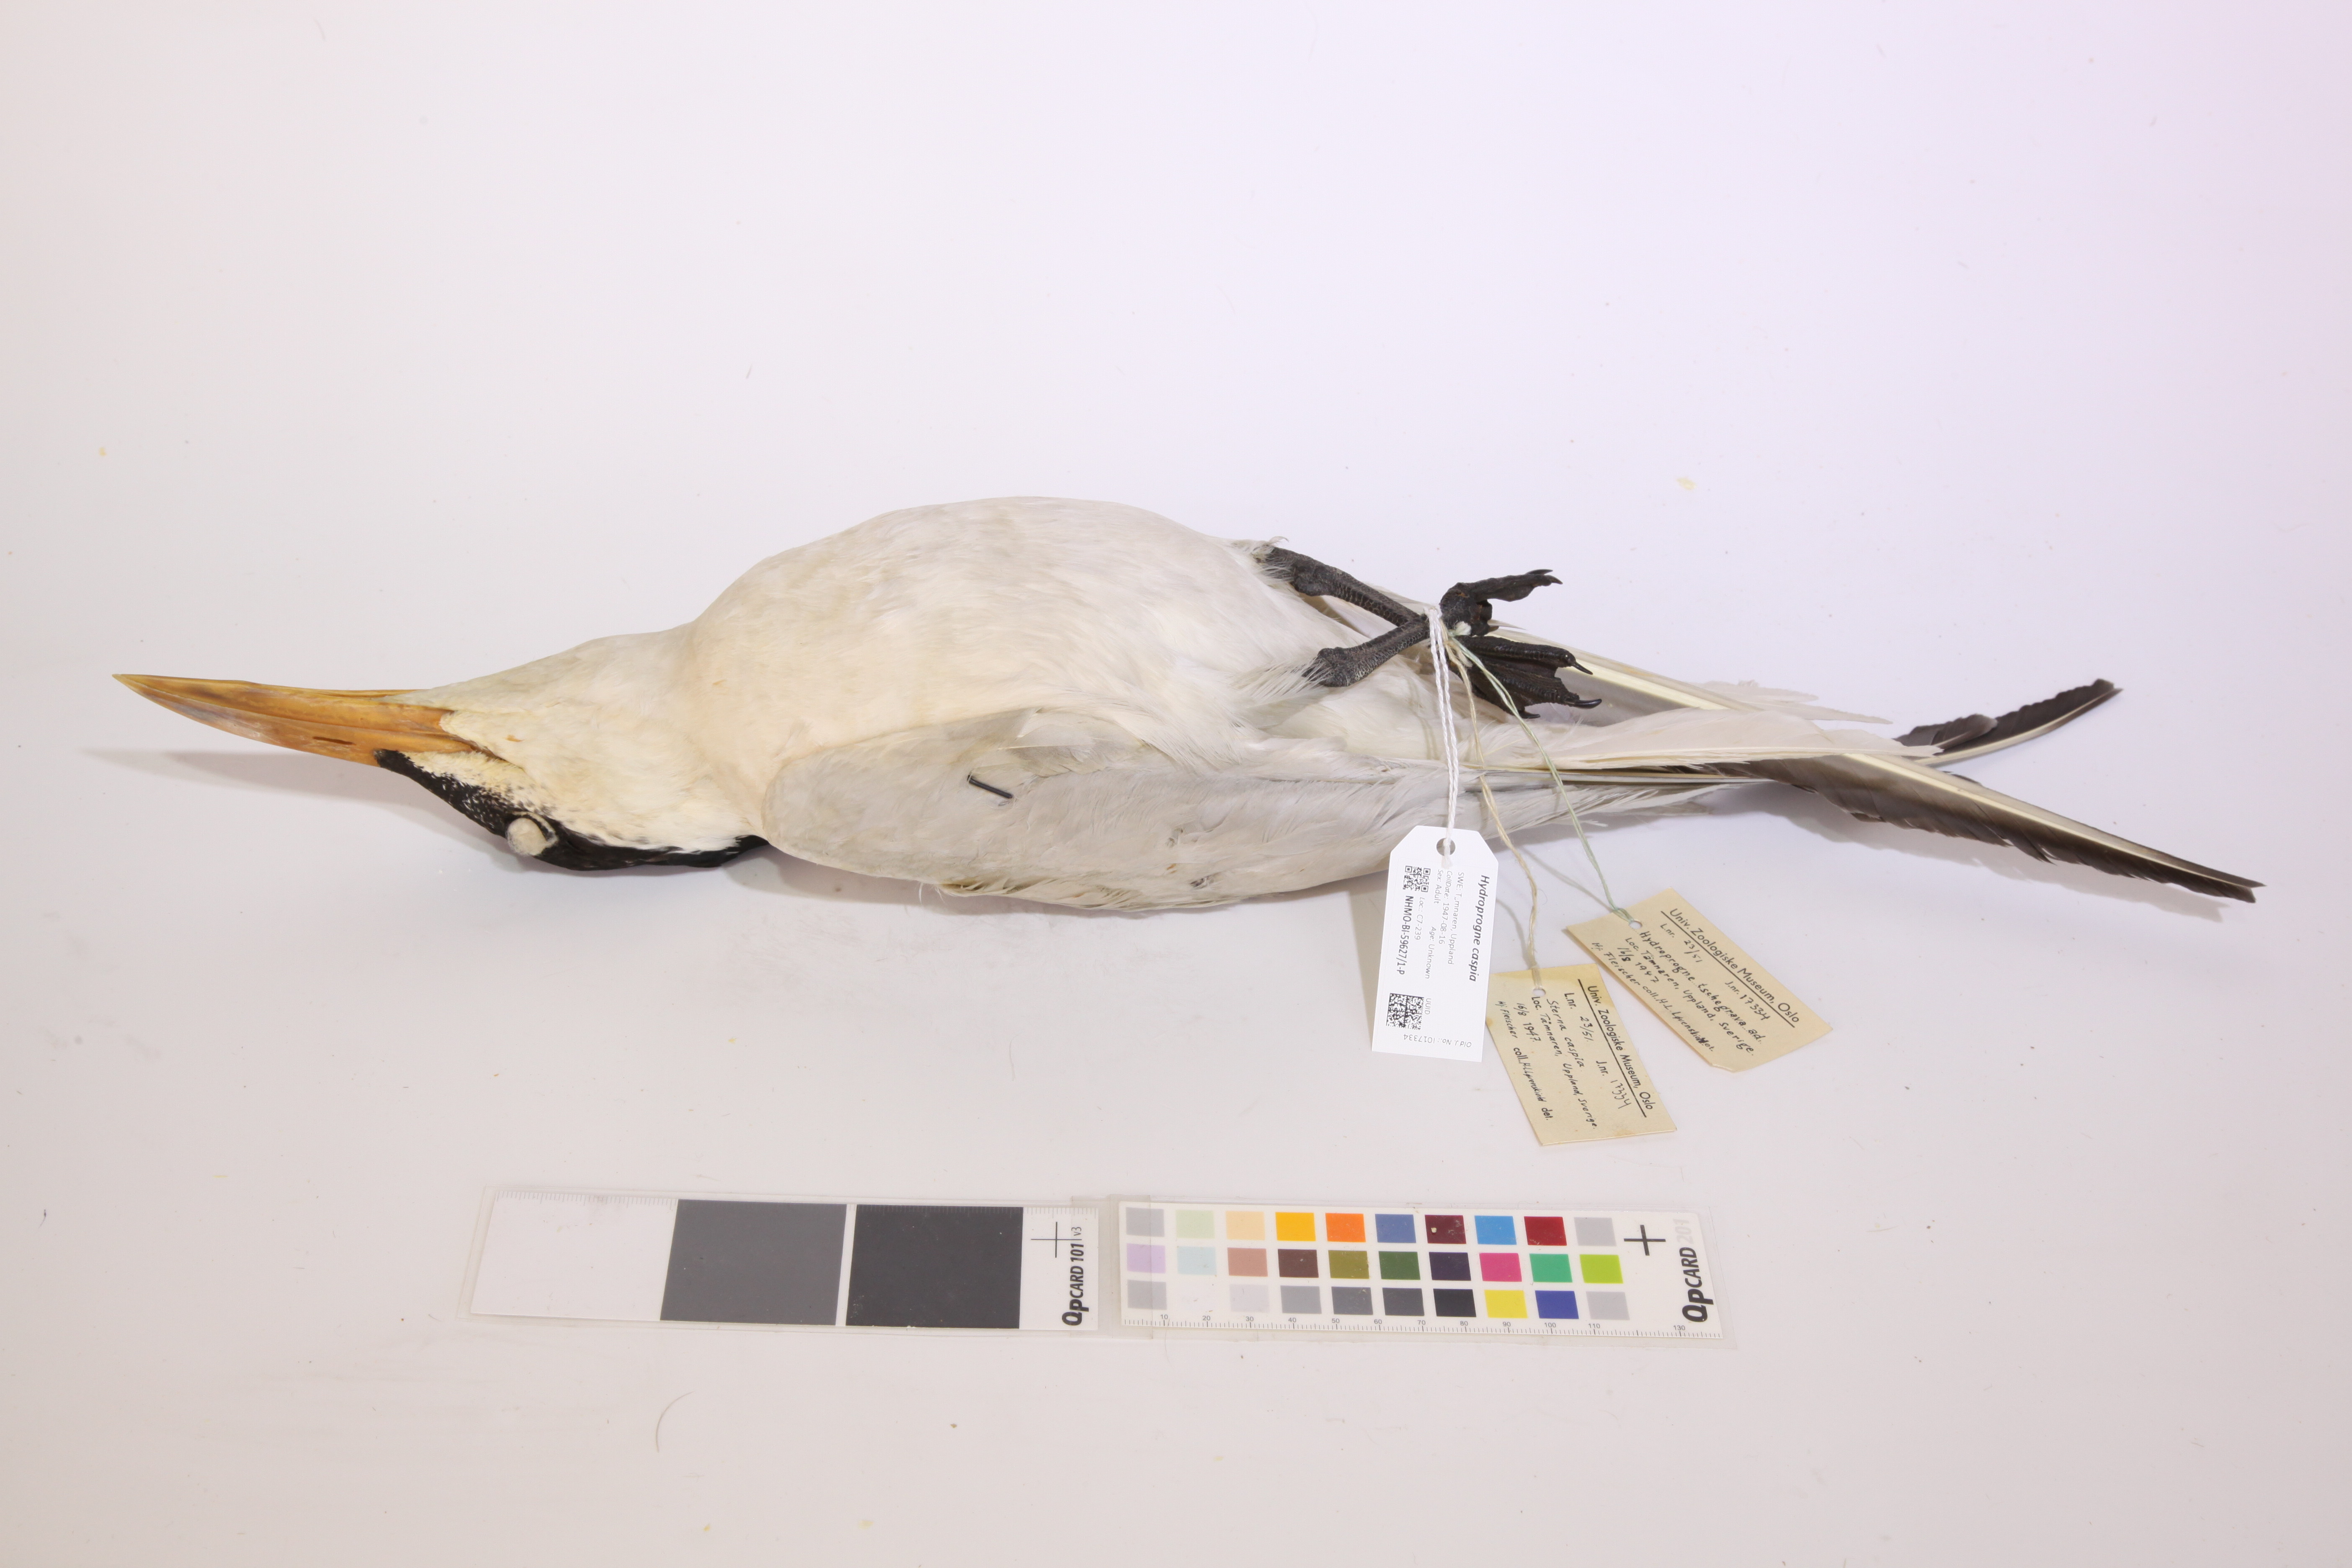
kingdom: Animalia
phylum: Chordata
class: Aves
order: Charadriiformes
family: Laridae
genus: Hydroprogne
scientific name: Hydroprogne caspia
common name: Caspian tern
